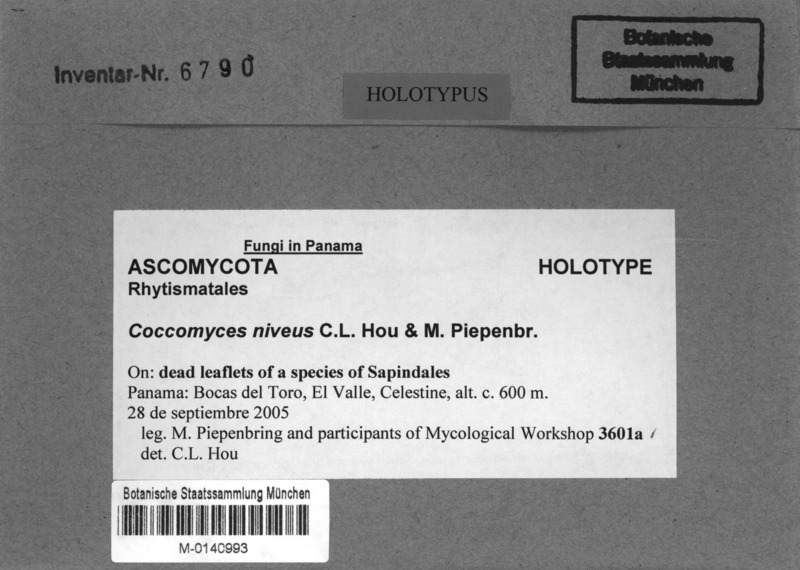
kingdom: Fungi
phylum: Ascomycota
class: Leotiomycetes
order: Rhytismatales
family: Rhytismataceae
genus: Coccomyces
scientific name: Coccomyces niveus
